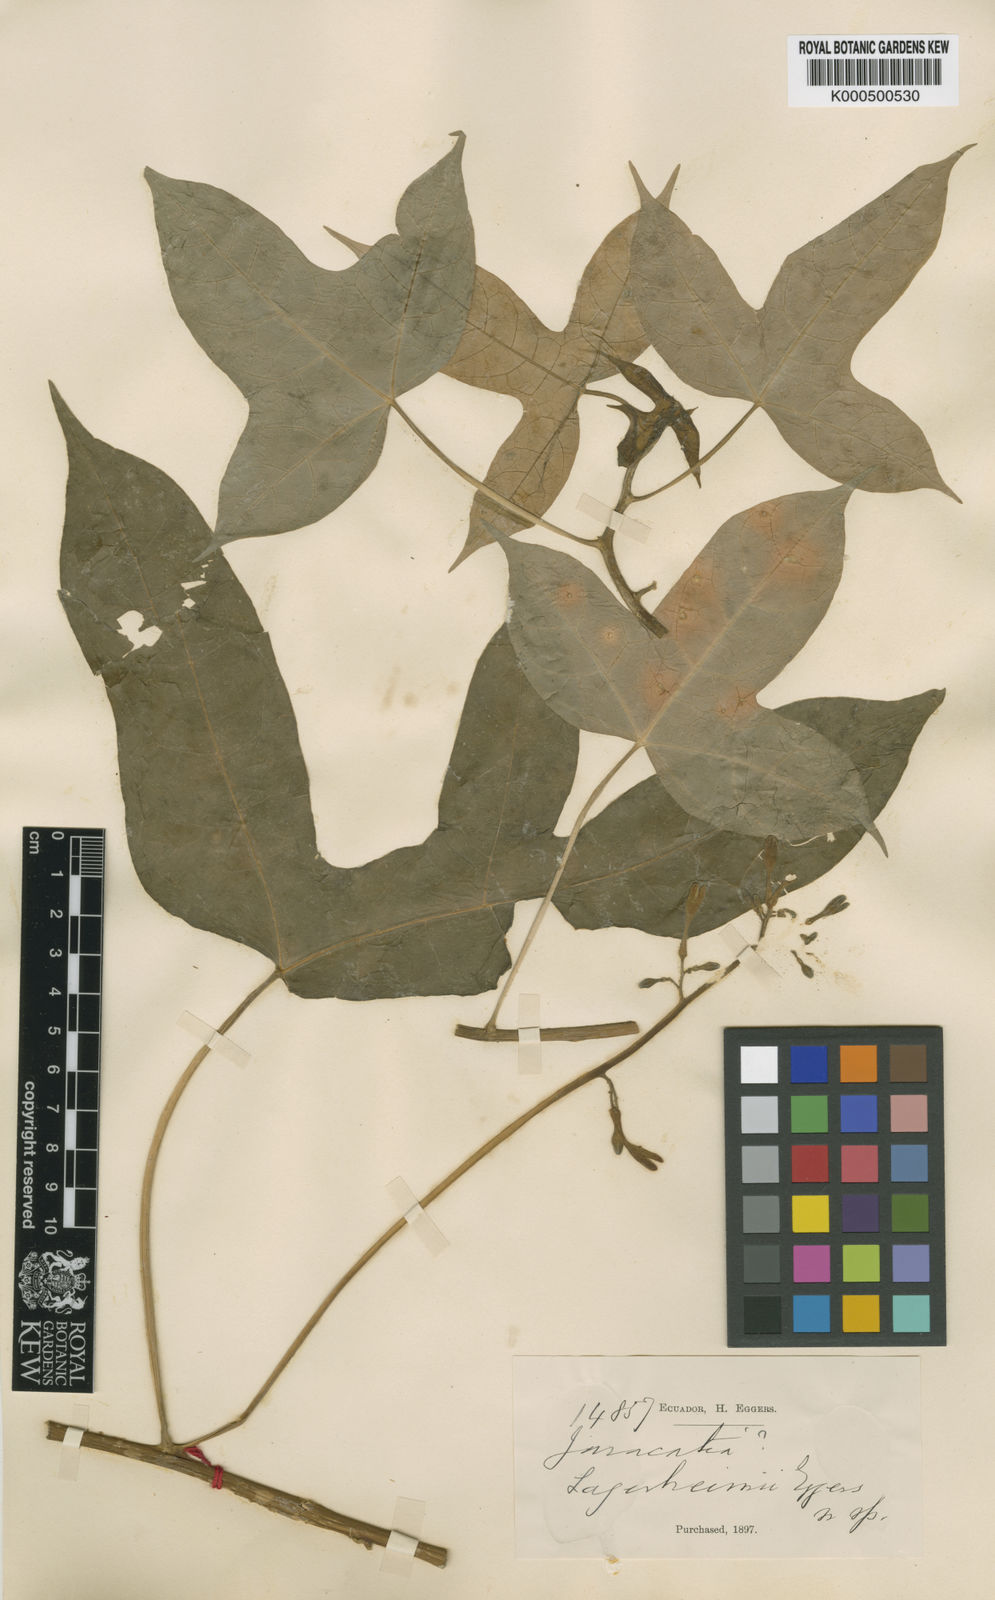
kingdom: Plantae
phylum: Tracheophyta
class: Magnoliopsida
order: Brassicales
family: Caricaceae
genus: Vasconcellea
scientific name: Vasconcellea horovitziana
